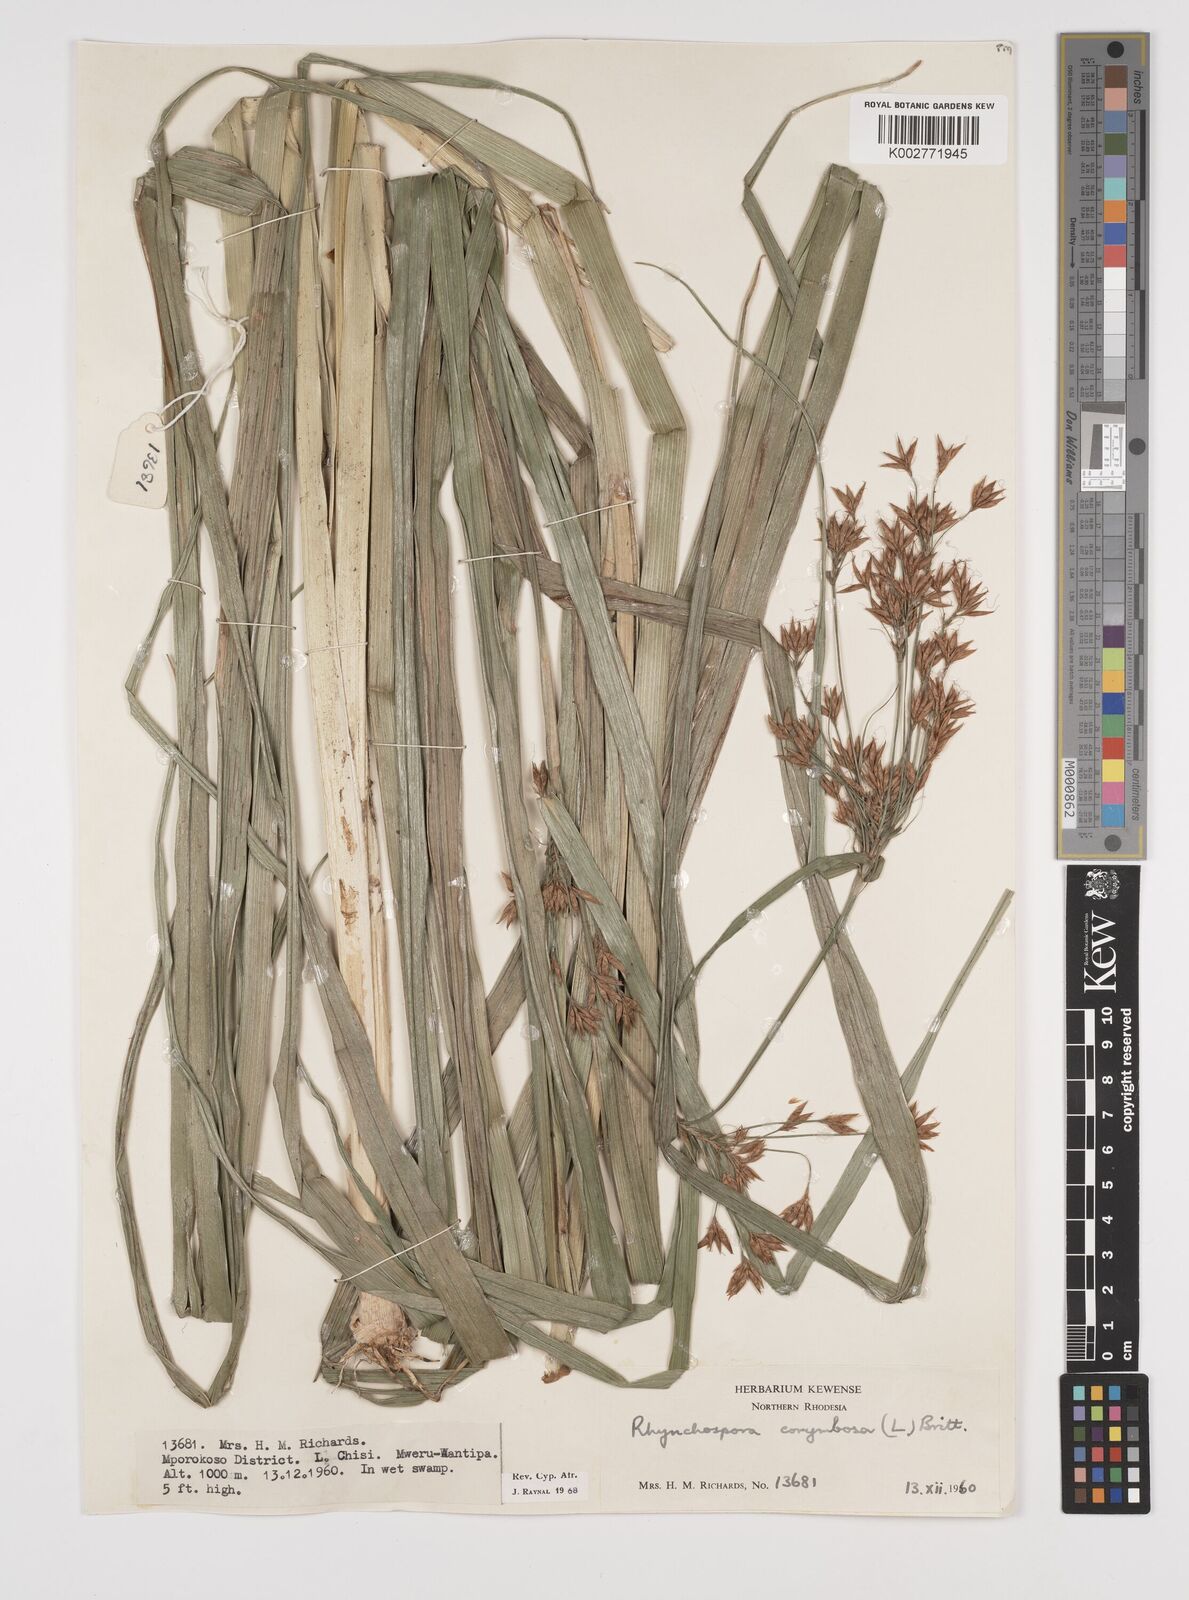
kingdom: Plantae
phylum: Tracheophyta
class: Liliopsida
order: Poales
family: Cyperaceae
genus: Rhynchospora
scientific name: Rhynchospora corymbosa
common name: Golden beak sedge
